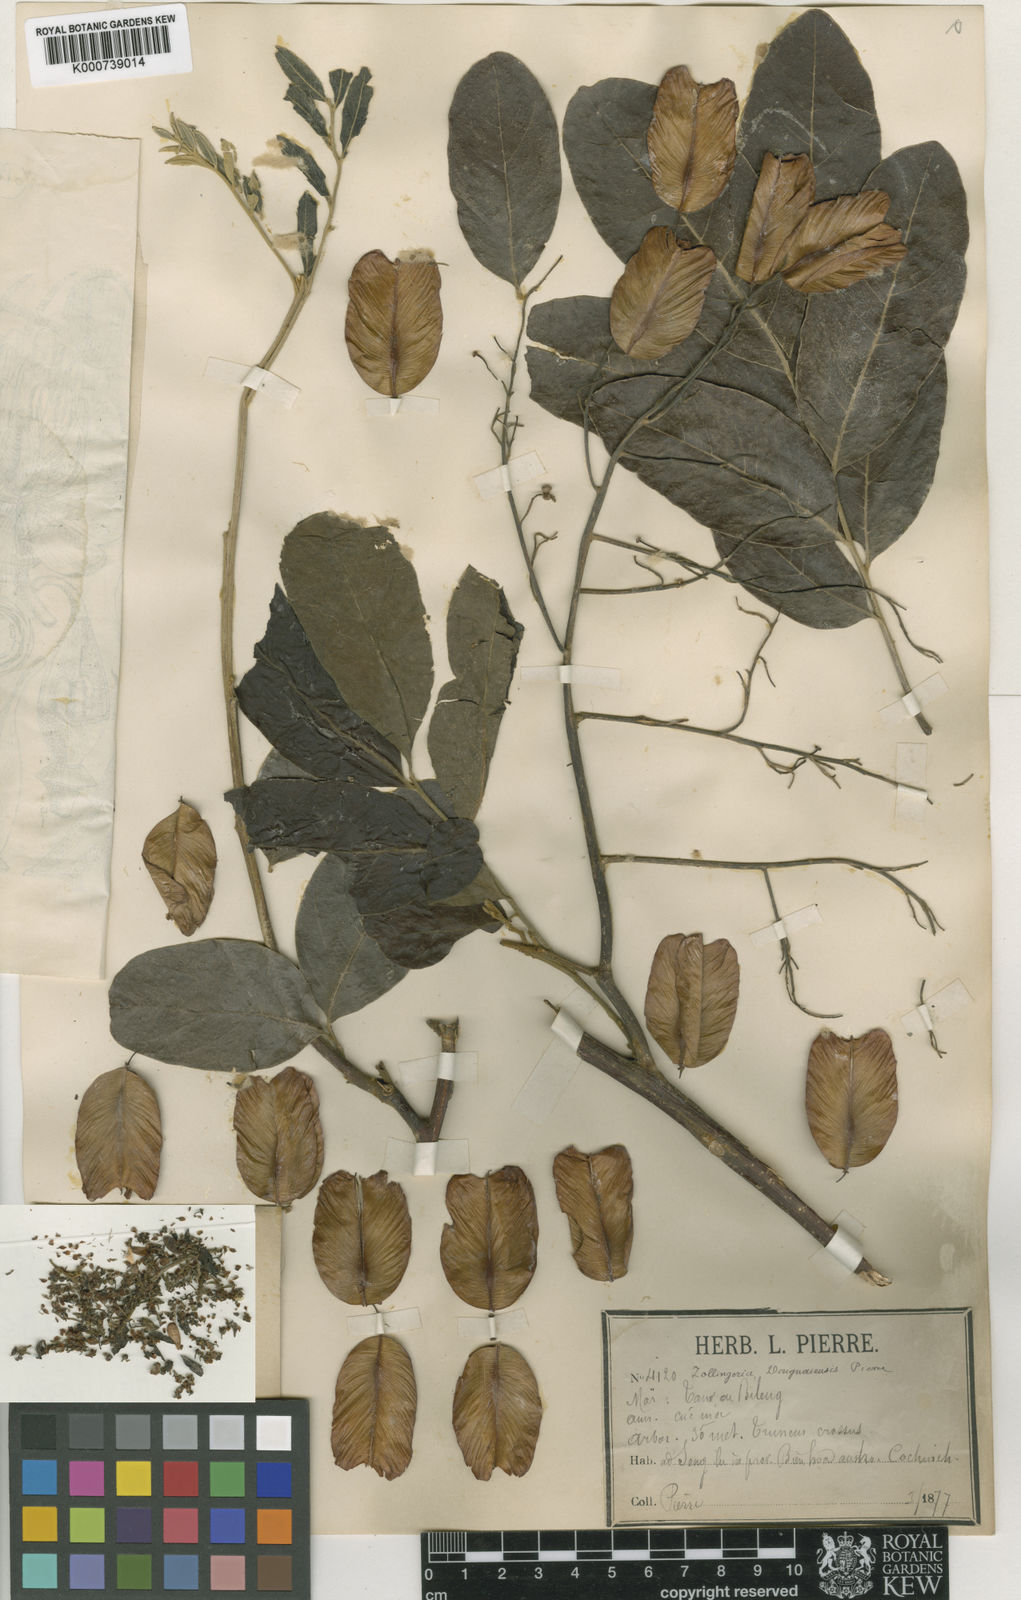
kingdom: Plantae
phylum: Tracheophyta
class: Magnoliopsida
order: Sapindales
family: Sapindaceae
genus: Zollingeria
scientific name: Zollingeria dongnaiensis
